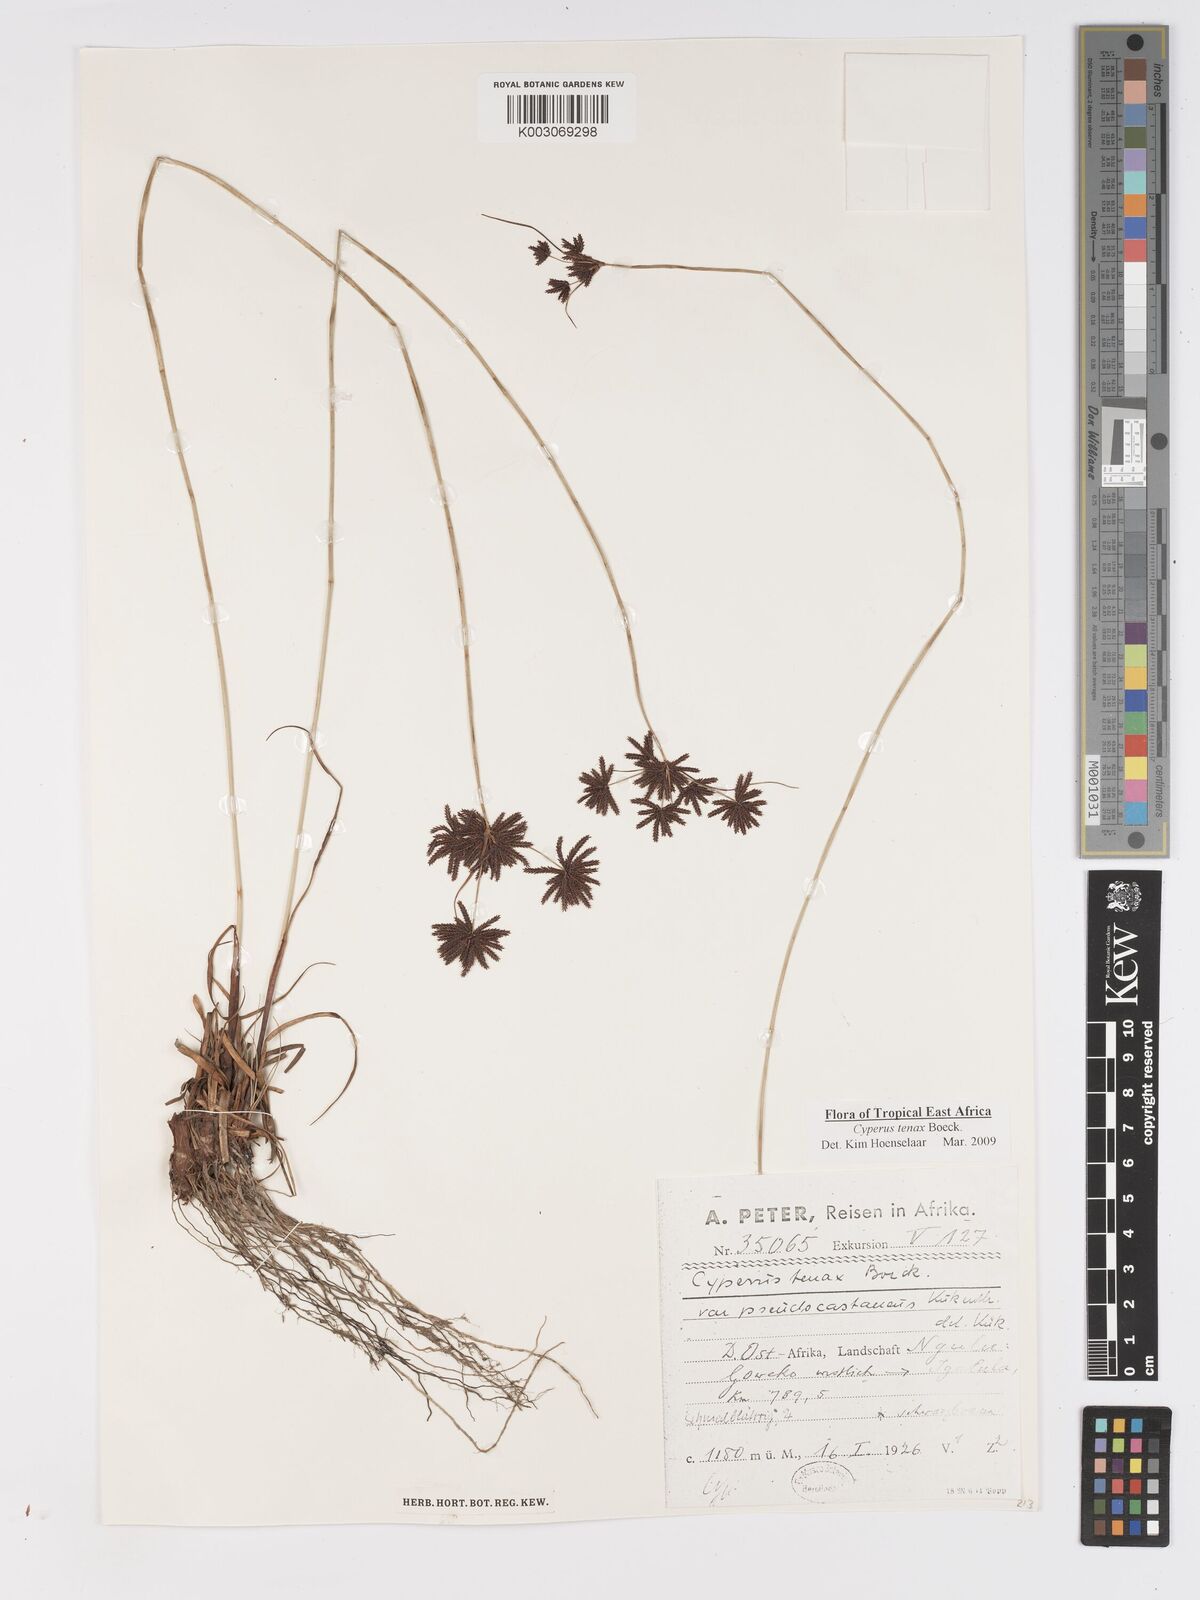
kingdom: Plantae
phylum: Tracheophyta
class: Liliopsida
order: Poales
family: Cyperaceae
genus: Cyperus
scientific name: Cyperus tenax
